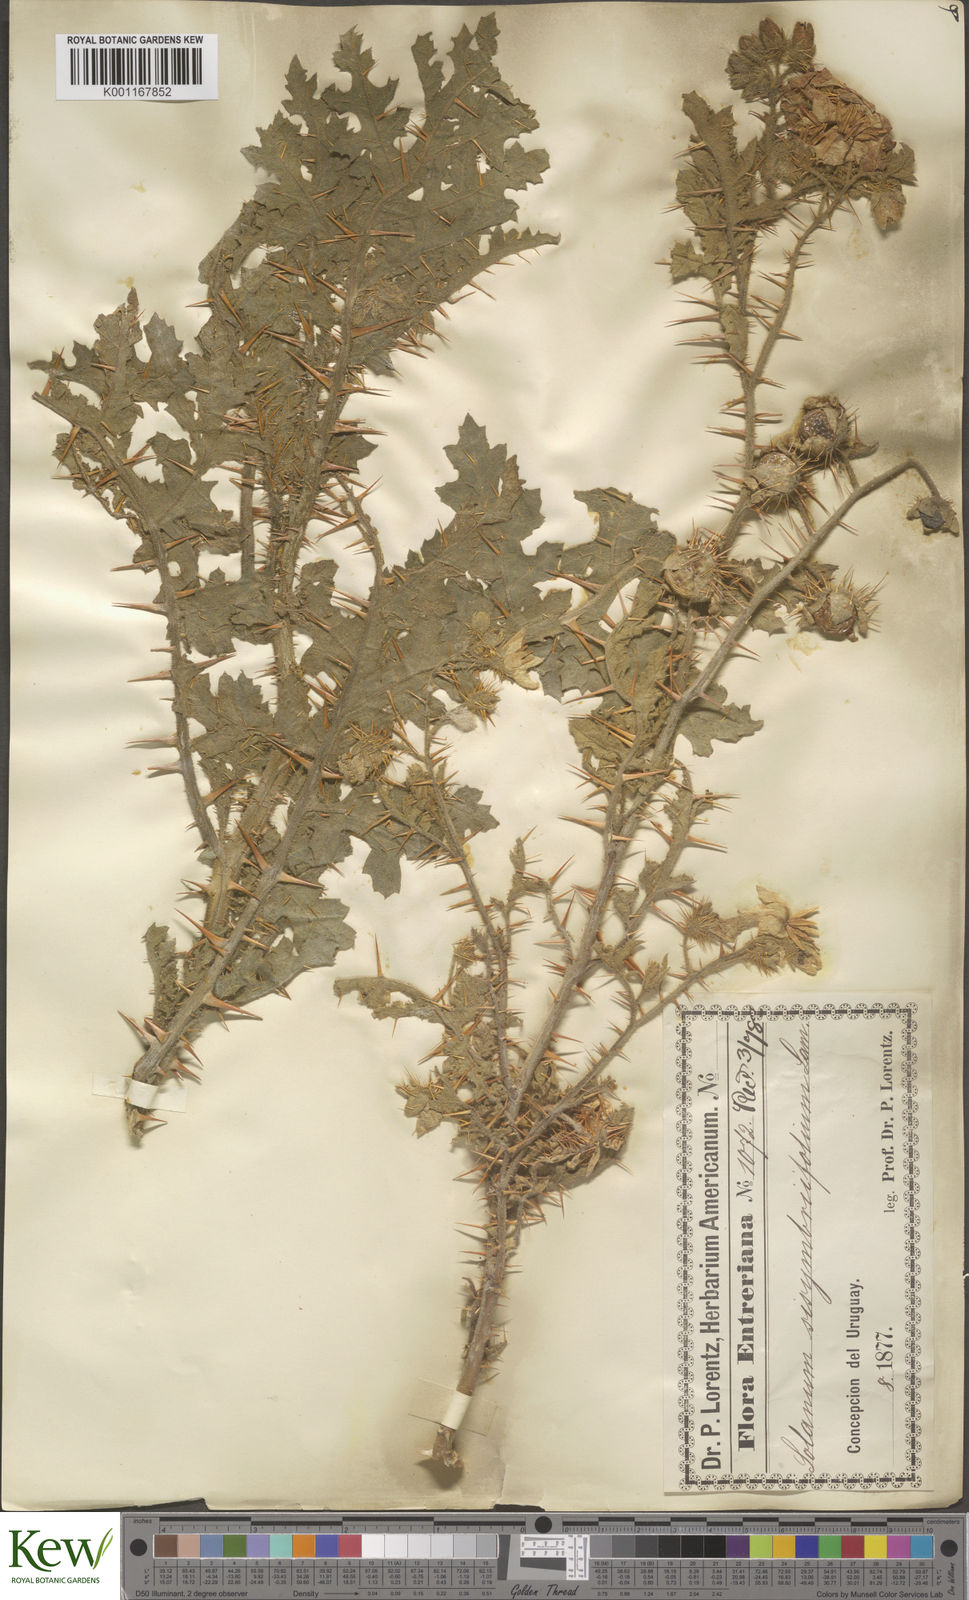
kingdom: Plantae
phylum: Tracheophyta
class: Magnoliopsida
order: Solanales
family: Solanaceae
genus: Solanum
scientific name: Solanum sisymbriifolium
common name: Red buffalo-bur
